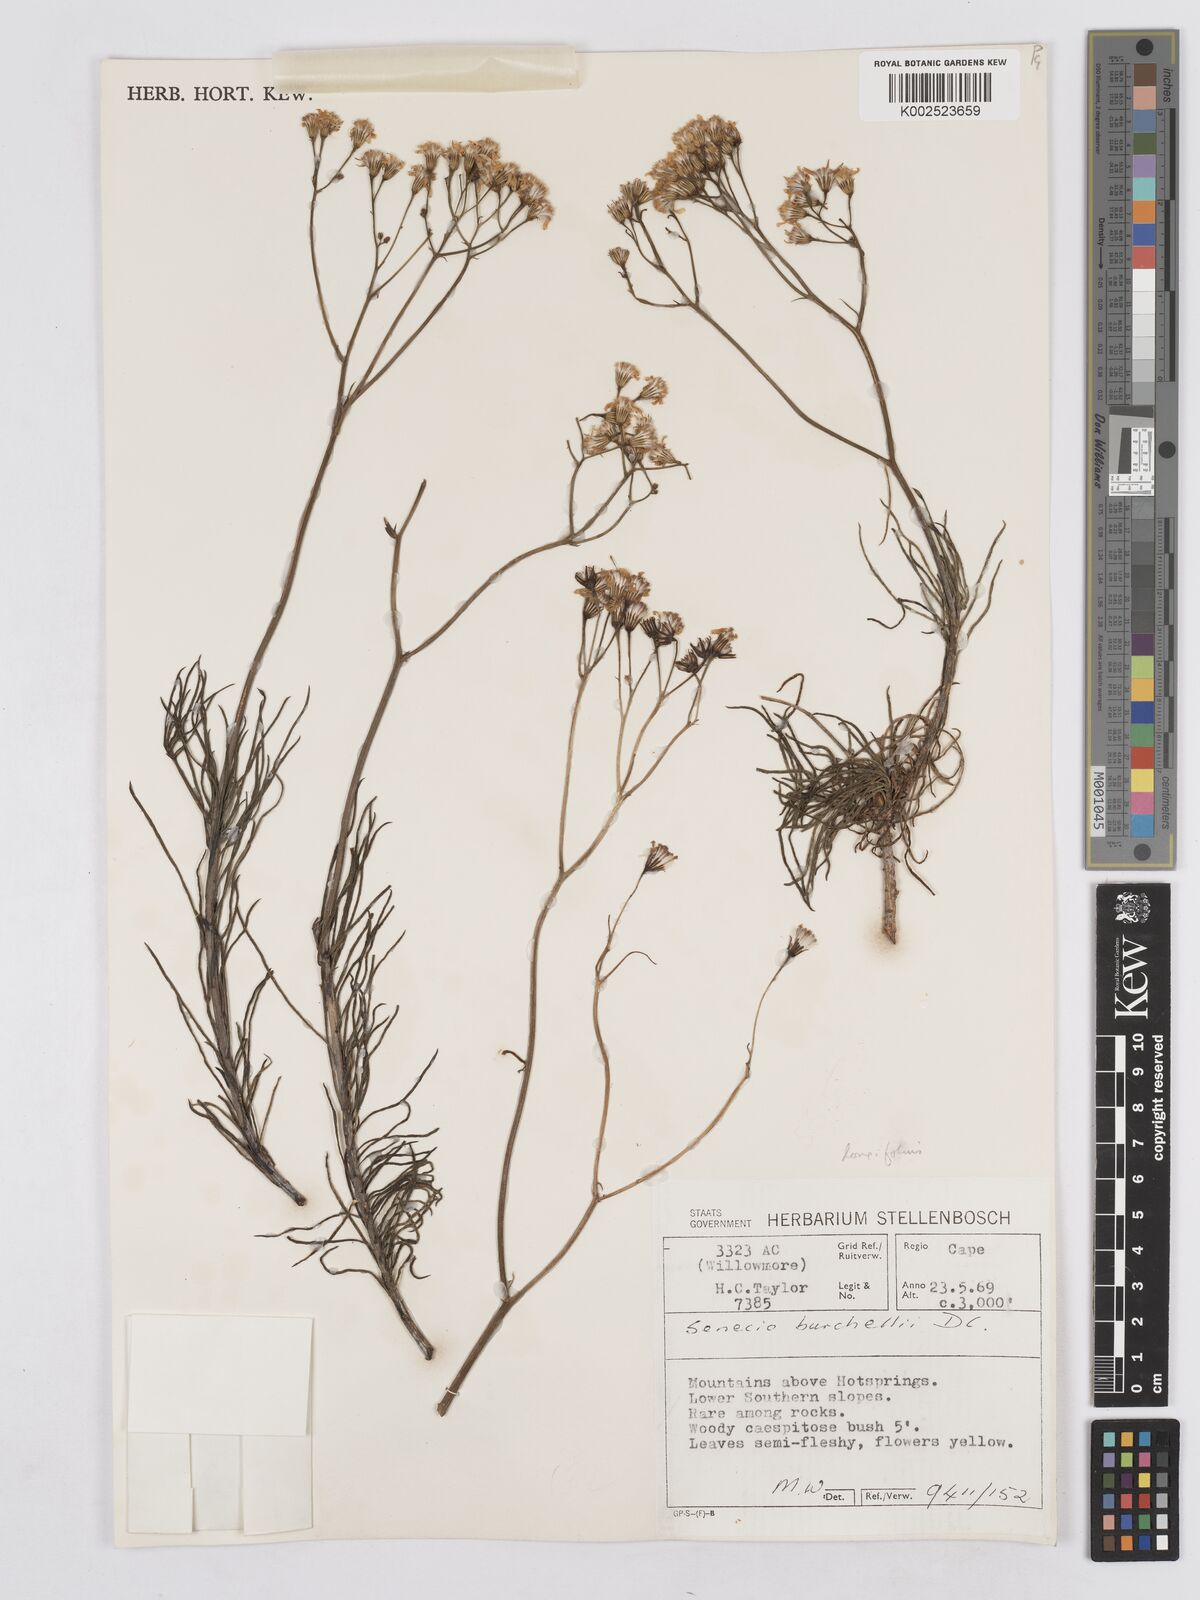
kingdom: Plantae
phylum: Tracheophyta
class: Magnoliopsida
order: Asterales
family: Asteraceae
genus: Senecio
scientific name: Senecio linifolius
